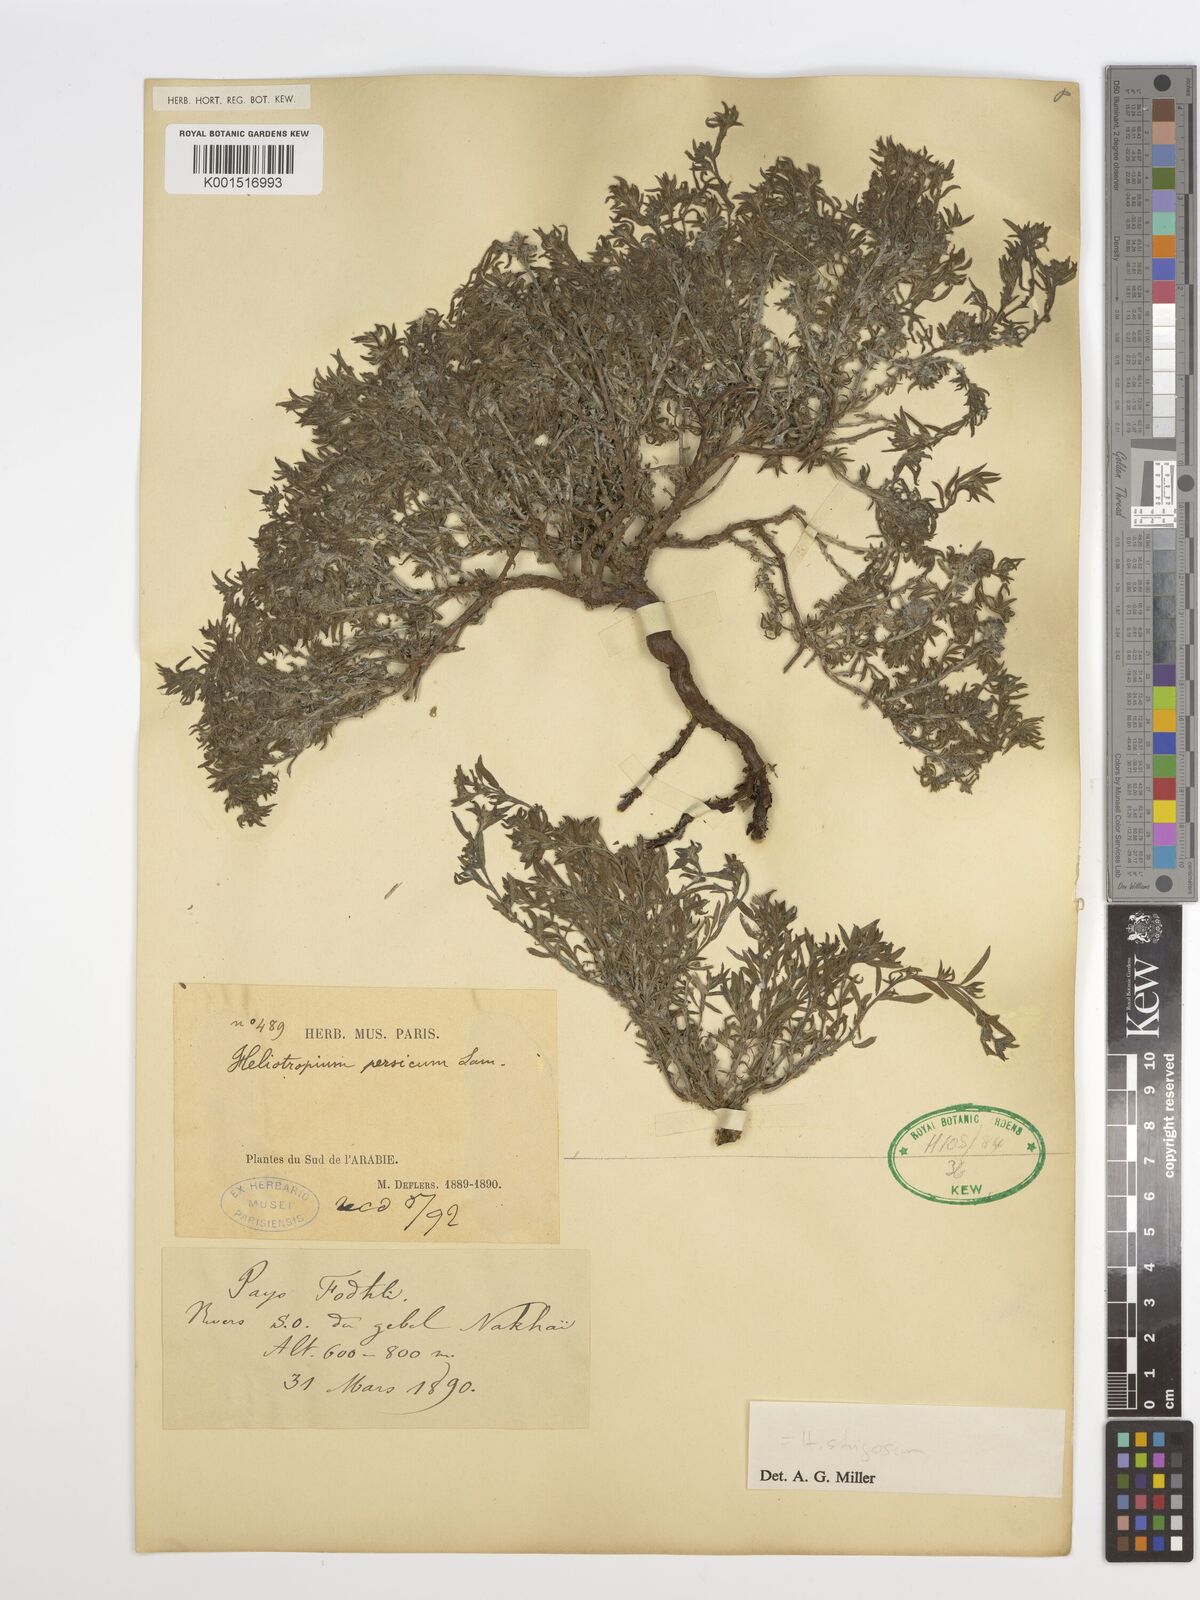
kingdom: Plantae
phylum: Tracheophyta
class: Magnoliopsida
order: Boraginales
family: Heliotropiaceae
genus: Heliotropium
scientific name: Heliotropium ramosissimum
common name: Wavy heliotrope
